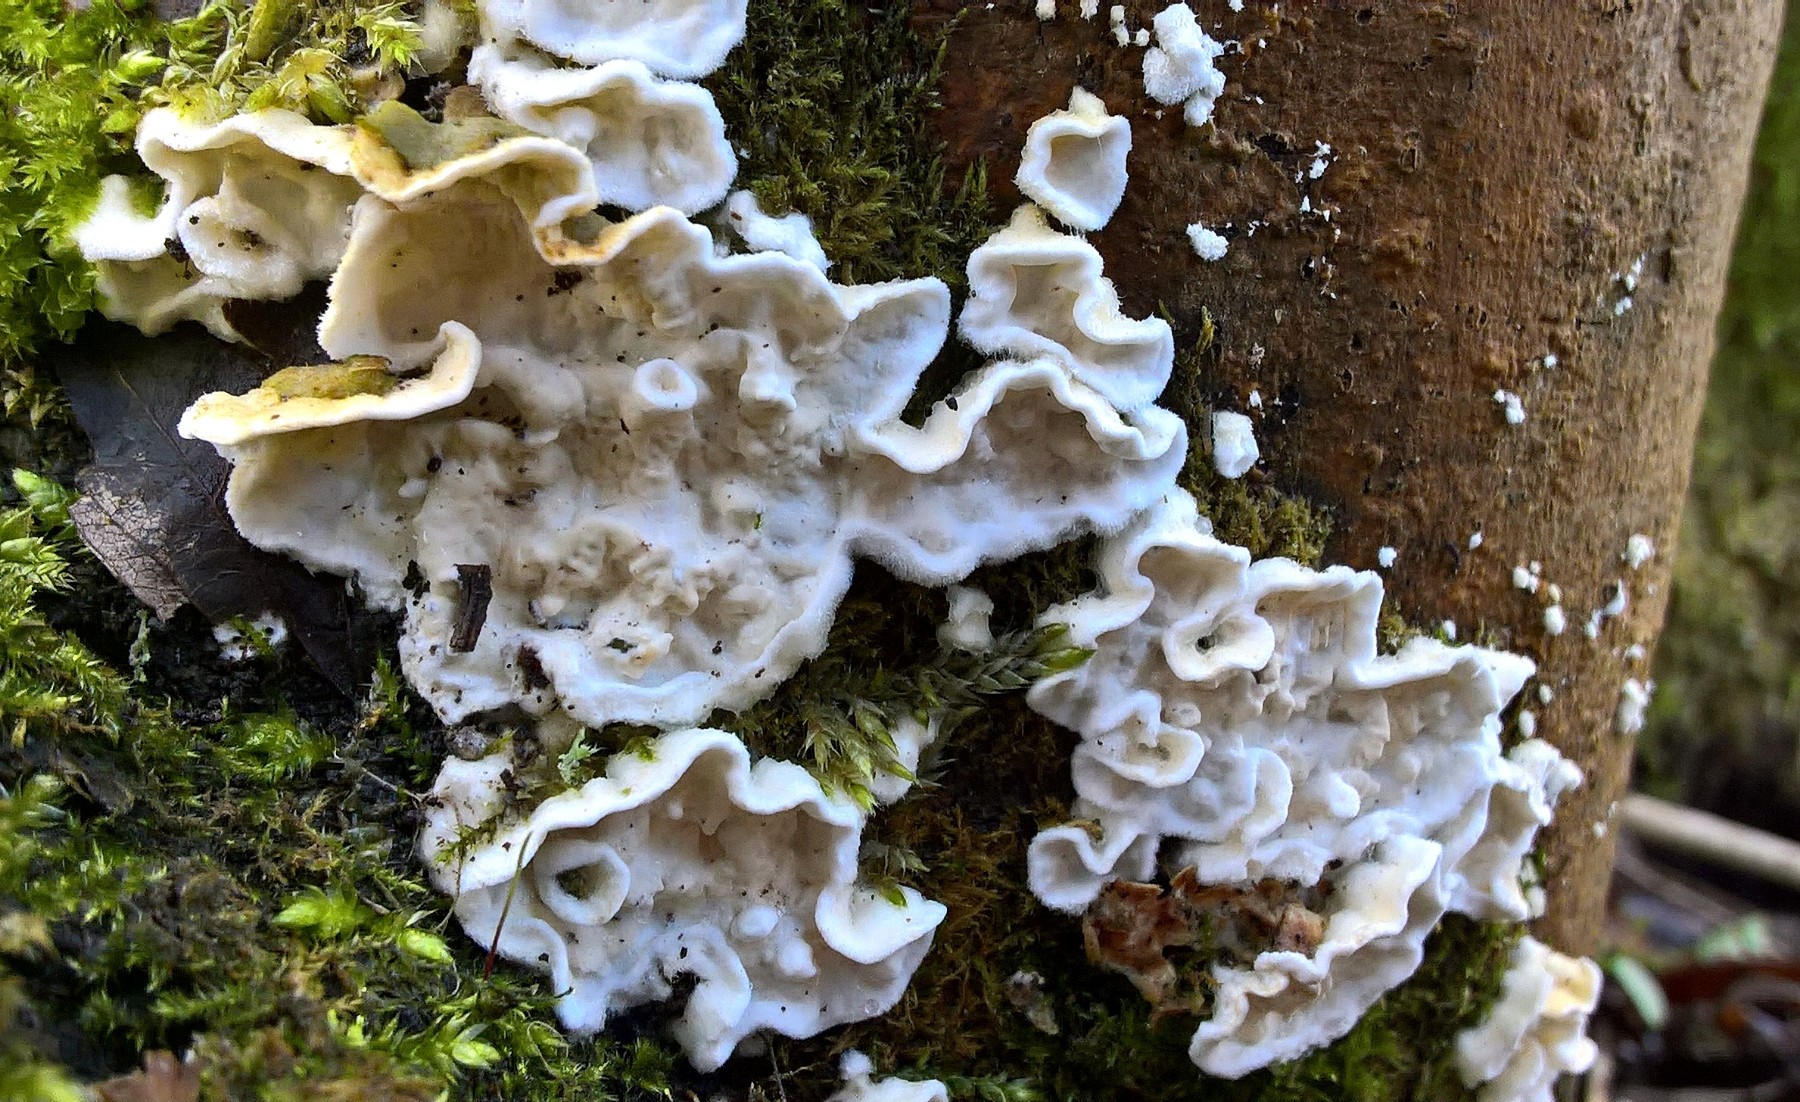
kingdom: Fungi
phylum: Basidiomycota
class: Agaricomycetes
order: Polyporales
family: Irpicaceae
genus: Byssomerulius
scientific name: Byssomerulius corium
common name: læder-åresvamp
